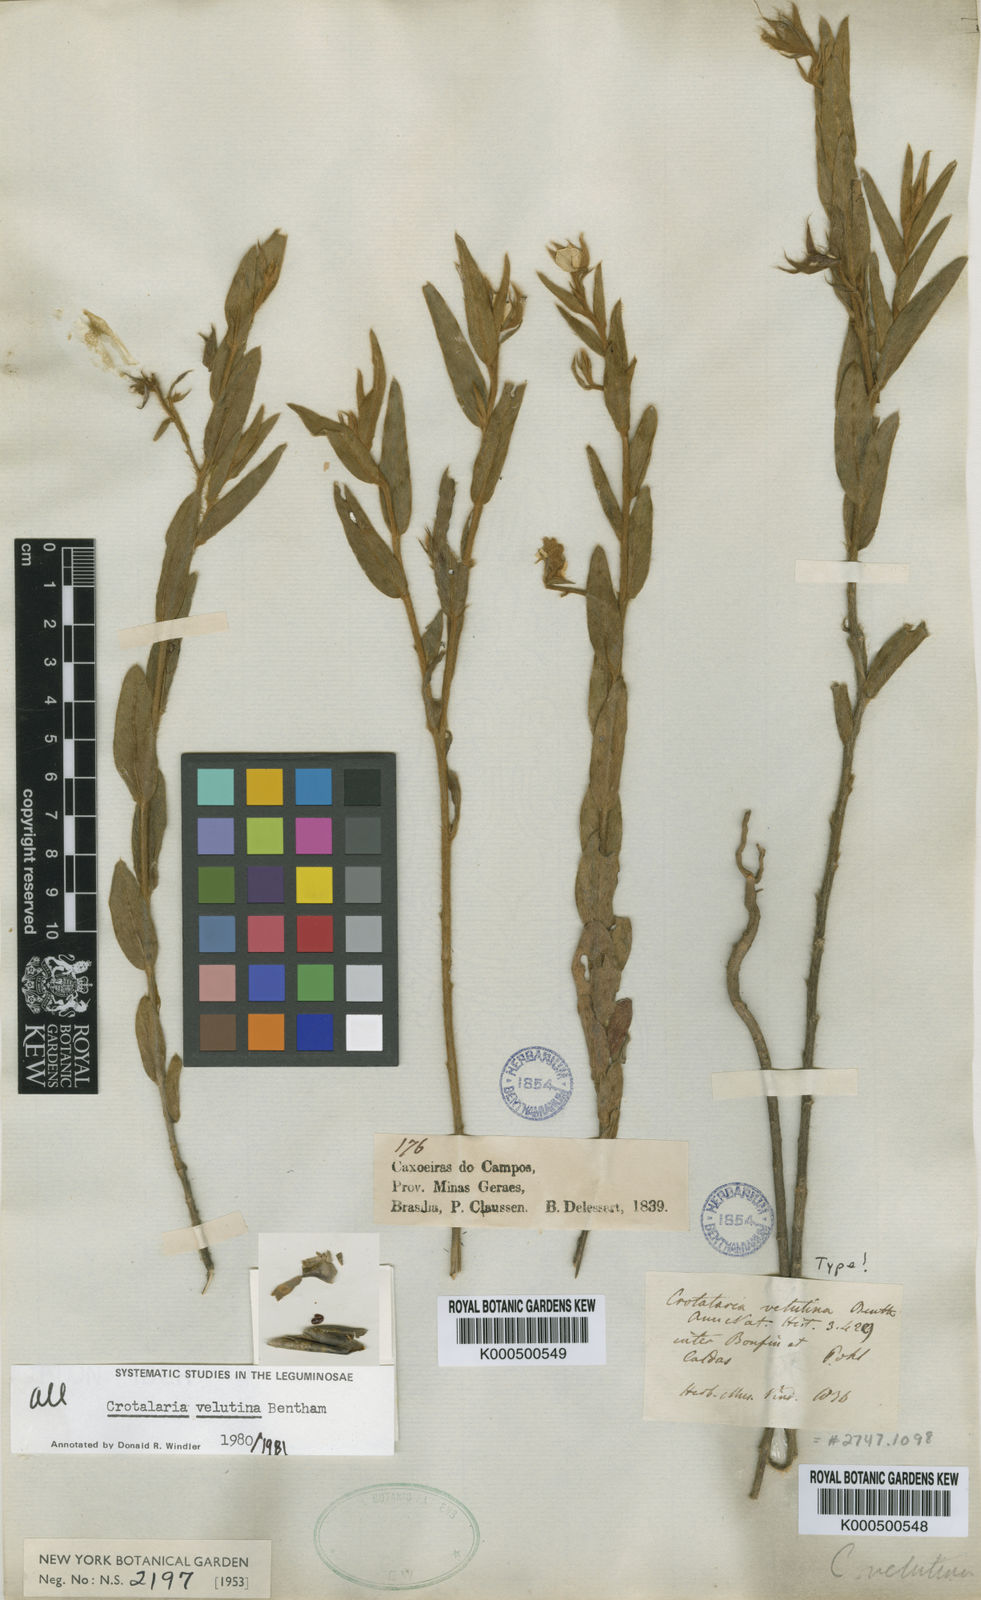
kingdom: Plantae
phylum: Tracheophyta
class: Magnoliopsida
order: Fabales
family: Fabaceae
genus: Crotalaria
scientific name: Crotalaria velutina
